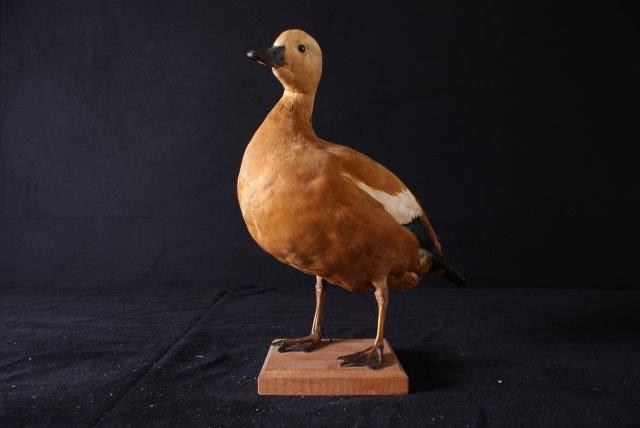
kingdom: Animalia
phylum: Chordata
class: Aves
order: Anseriformes
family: Anatidae
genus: Tadorna
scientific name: Tadorna ferruginea
